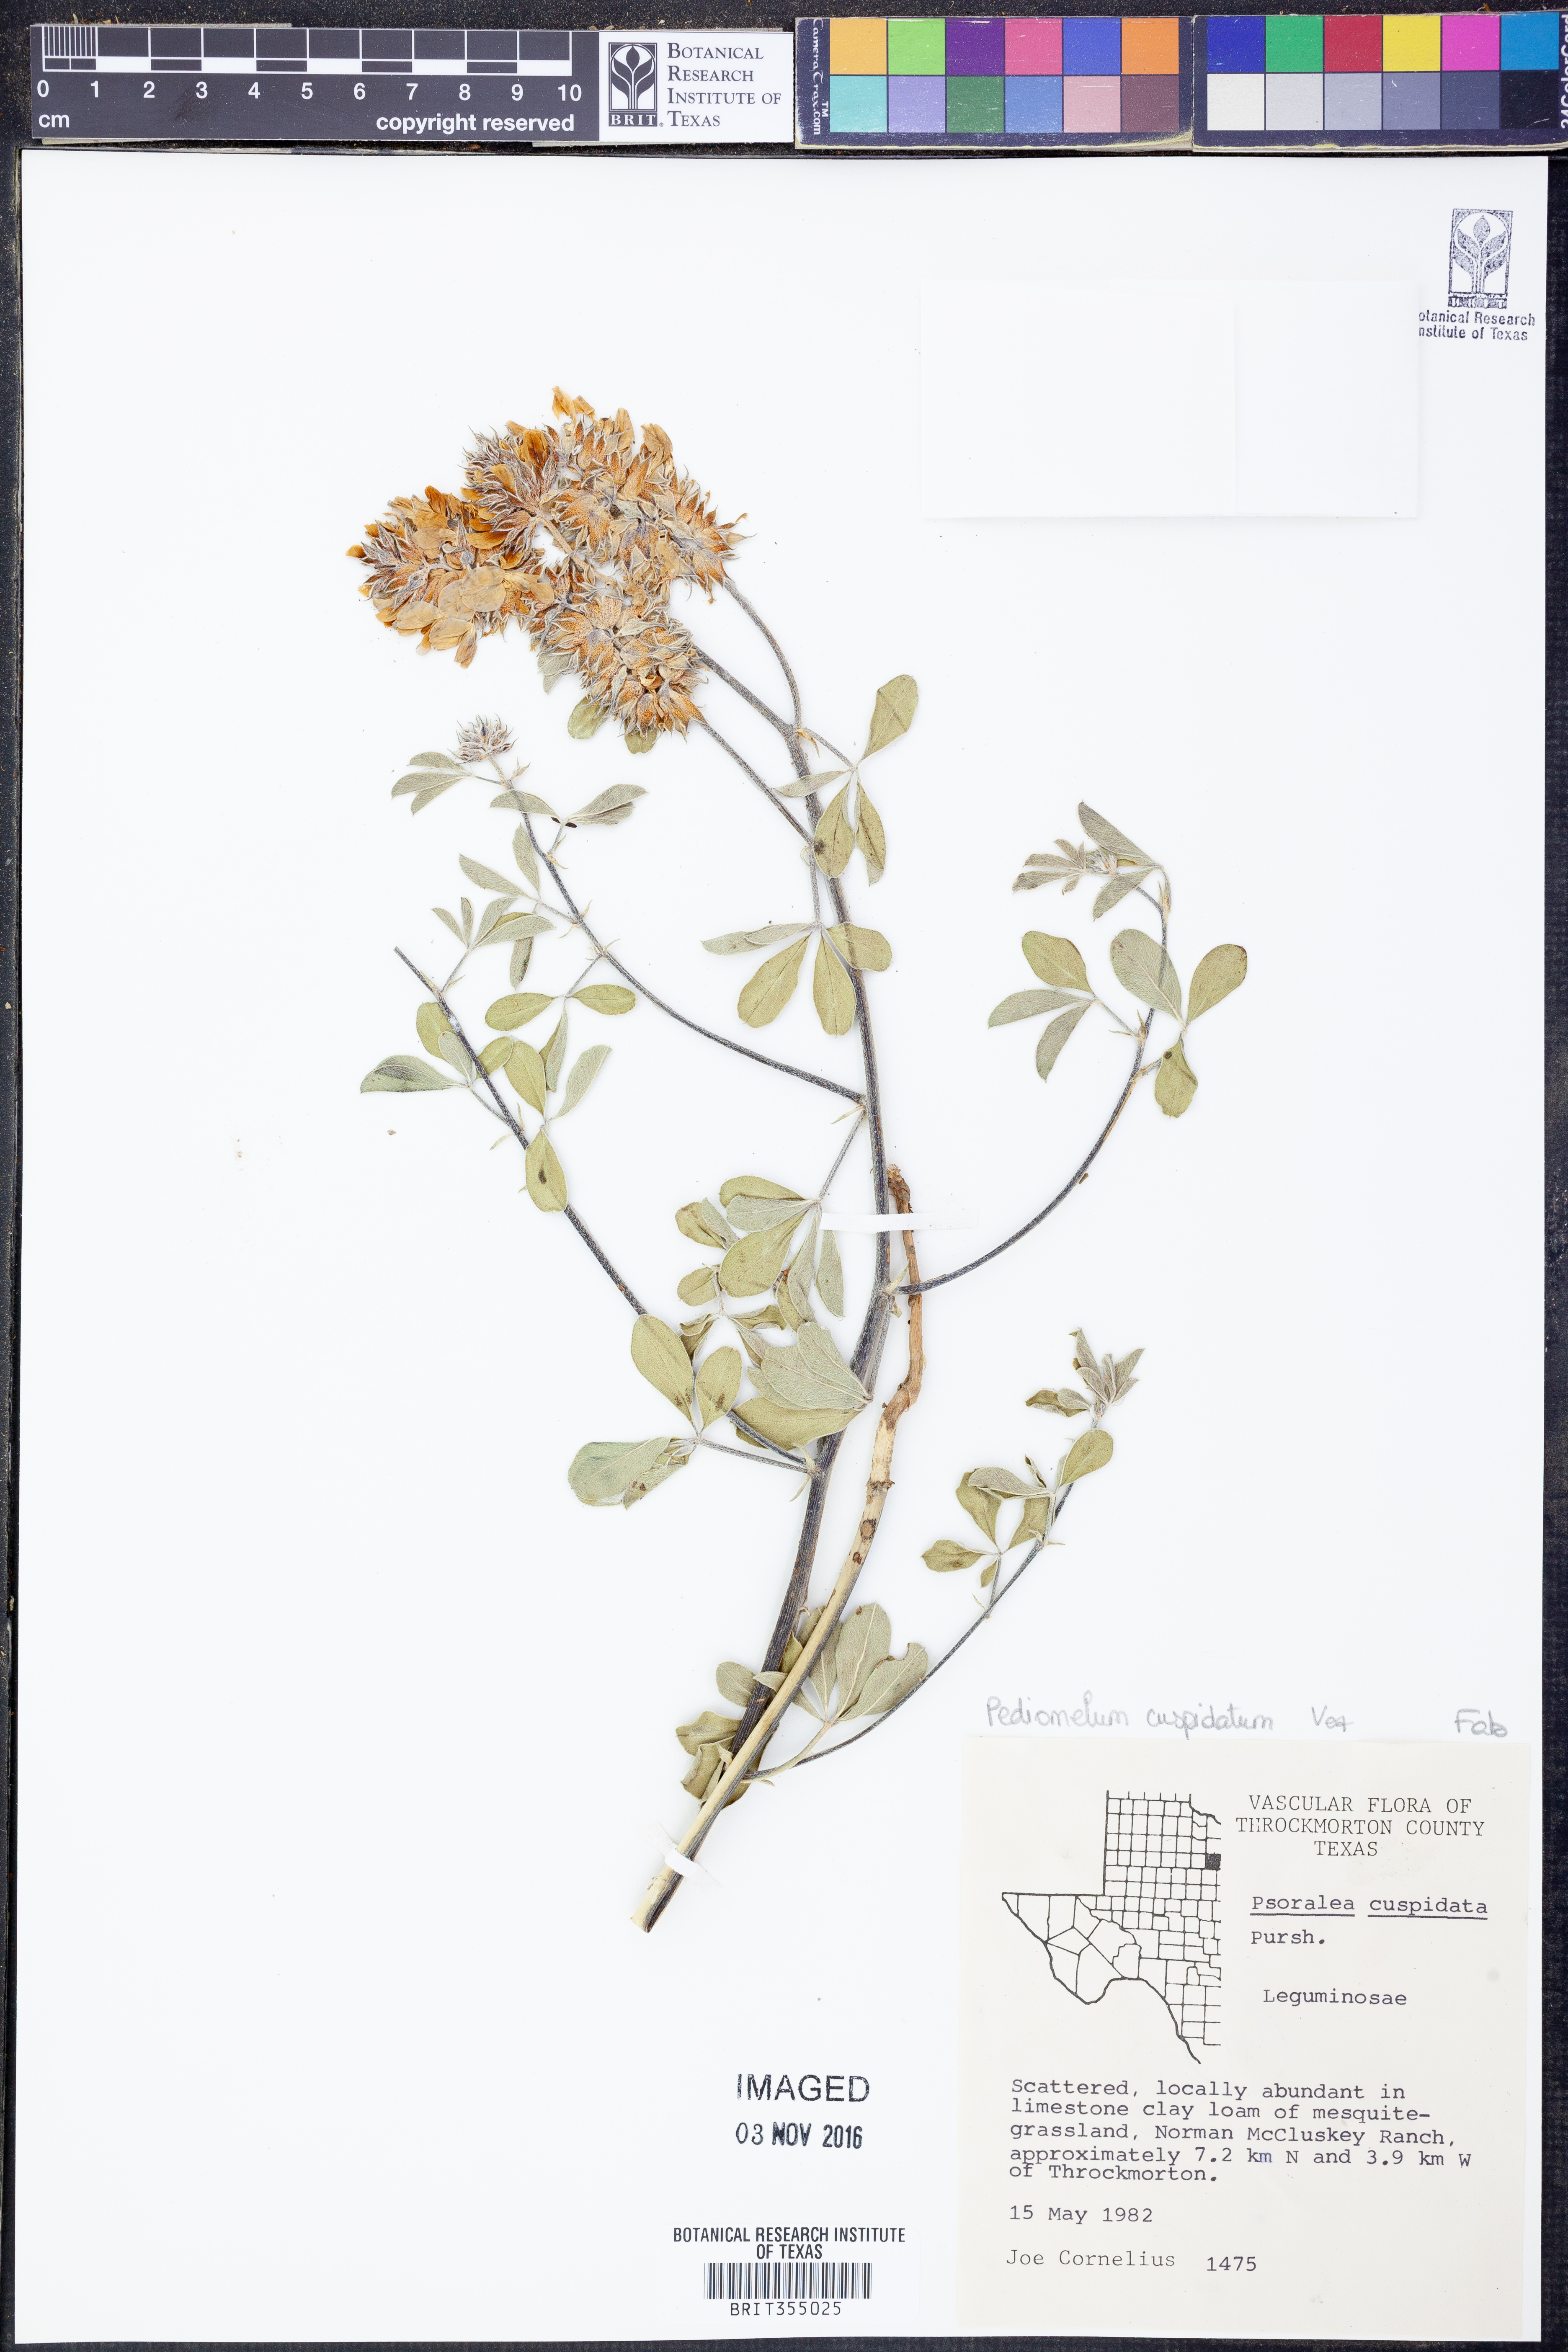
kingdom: Plantae
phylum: Tracheophyta
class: Magnoliopsida
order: Fabales
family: Fabaceae
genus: Pediomelum
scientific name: Pediomelum cuspidatum
